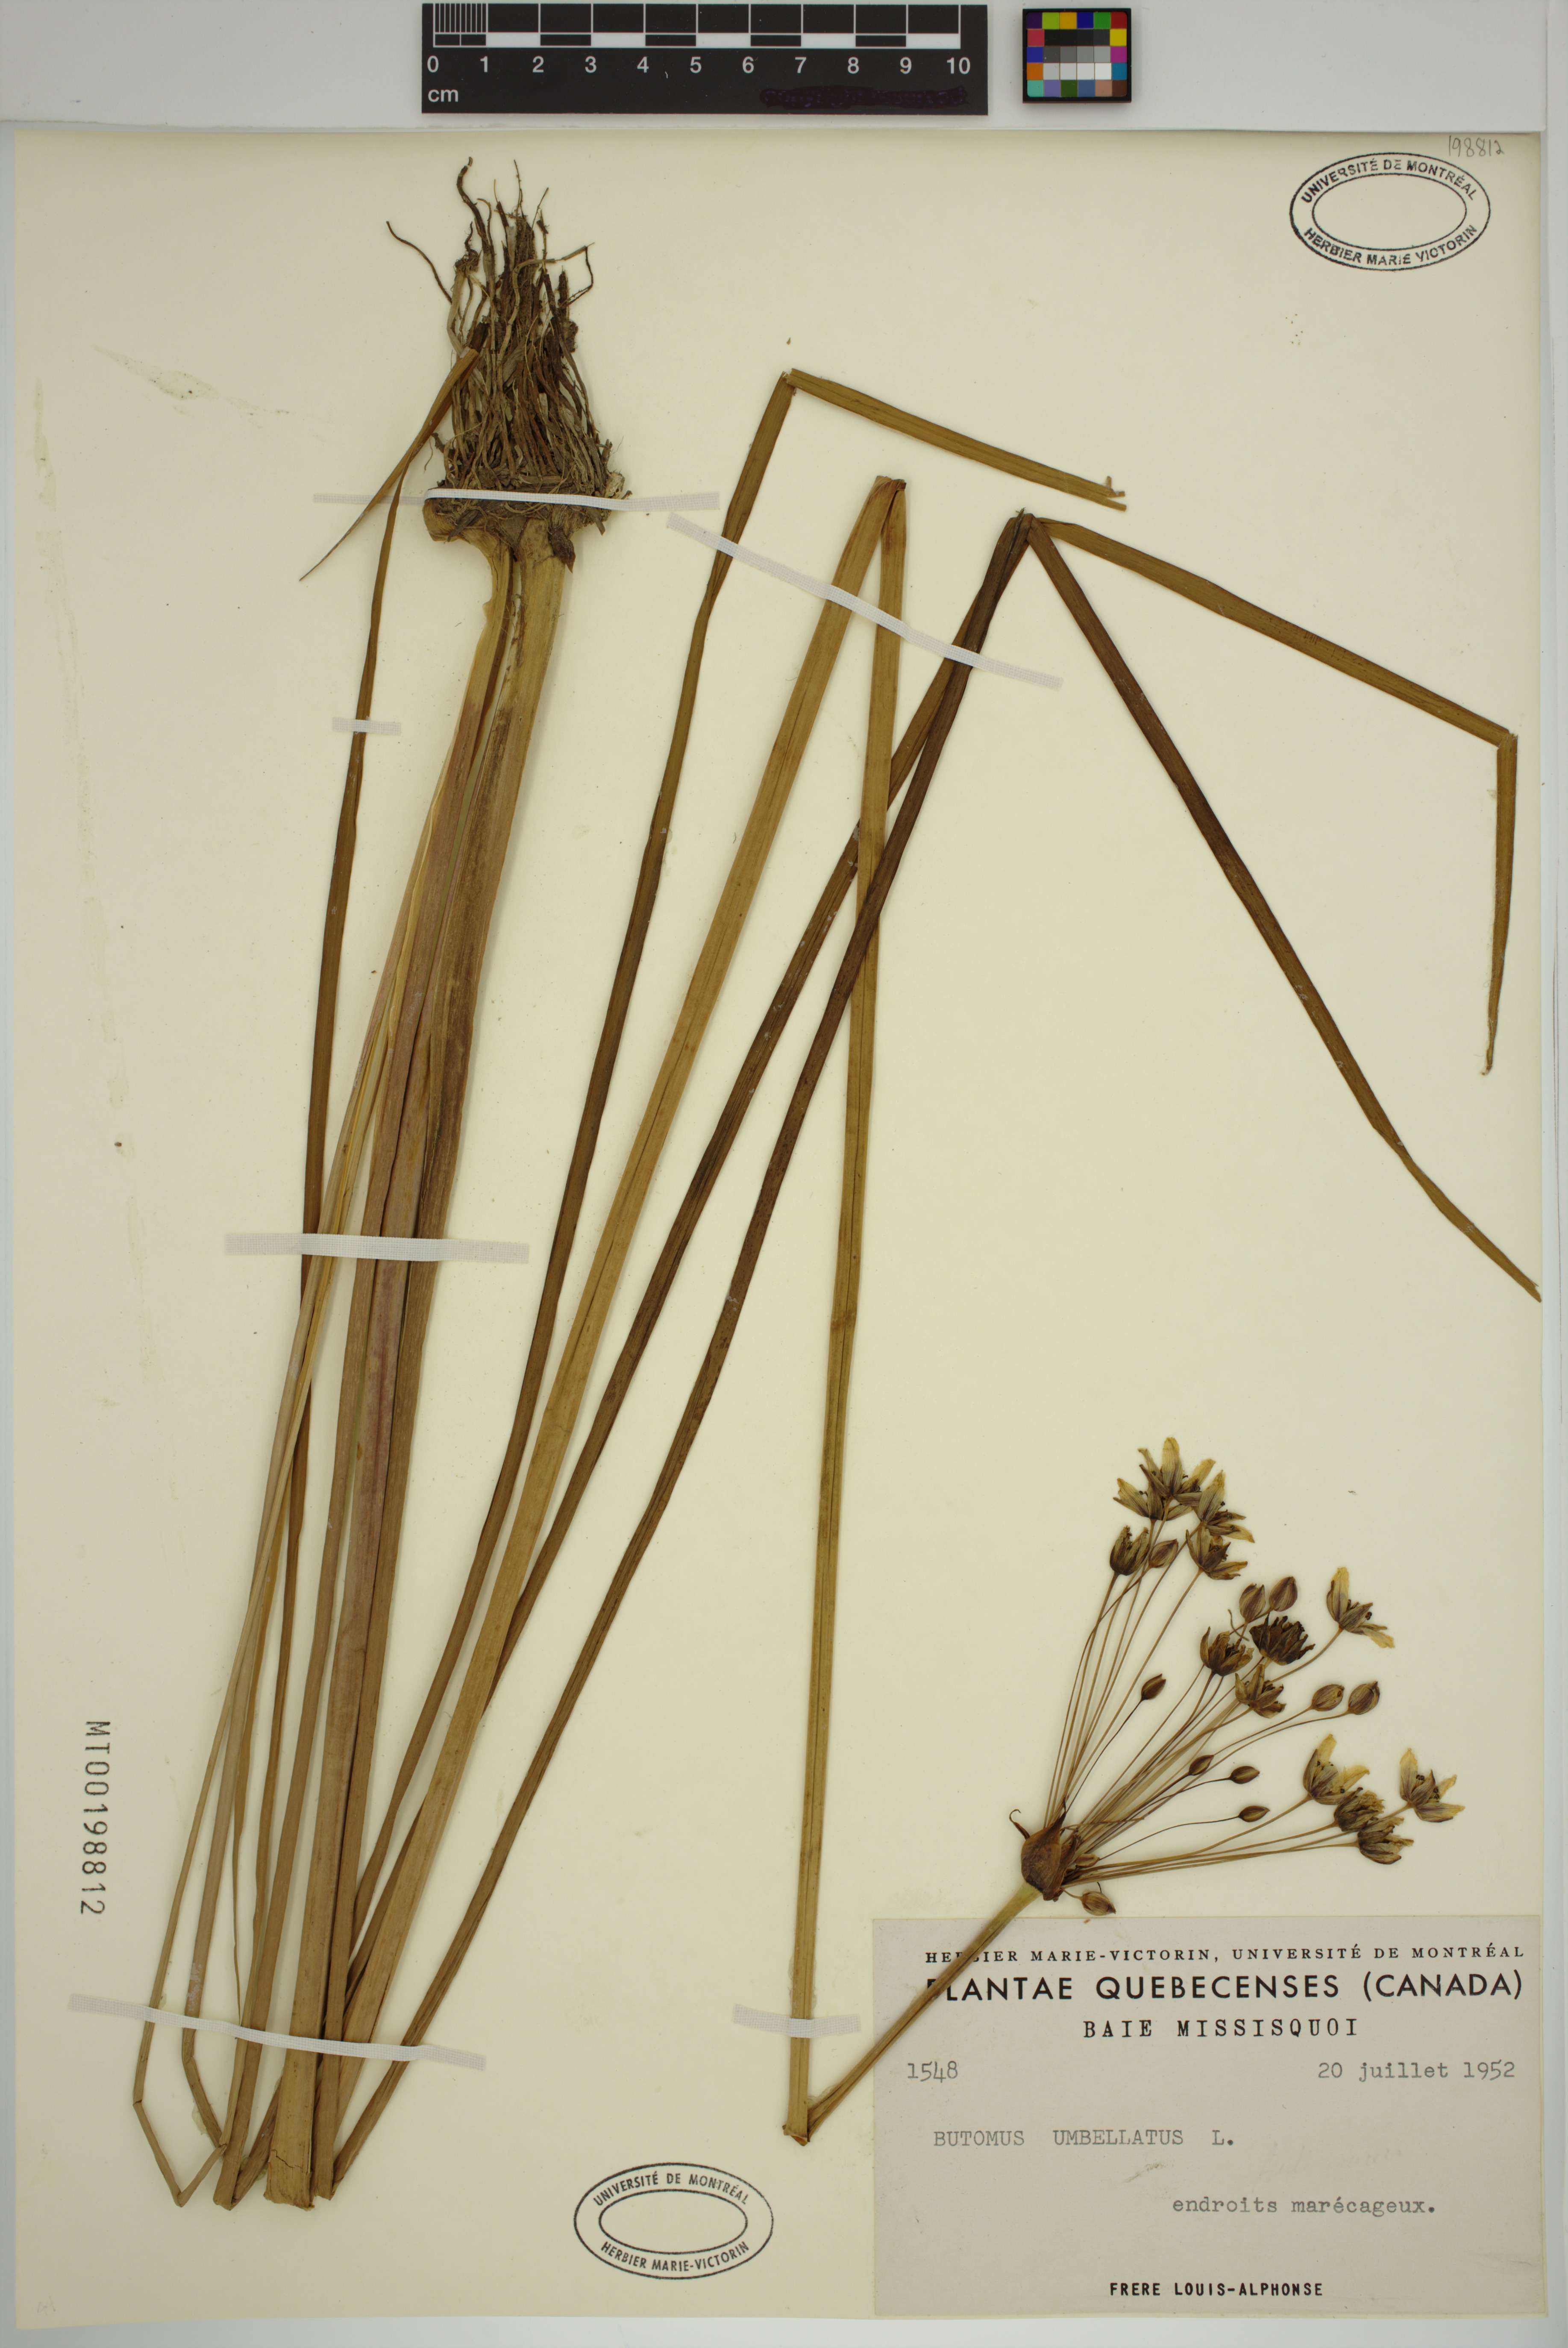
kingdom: Plantae
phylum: Tracheophyta
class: Liliopsida
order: Alismatales
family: Butomaceae
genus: Butomus
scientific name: Butomus umbellatus
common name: Flowering-rush
